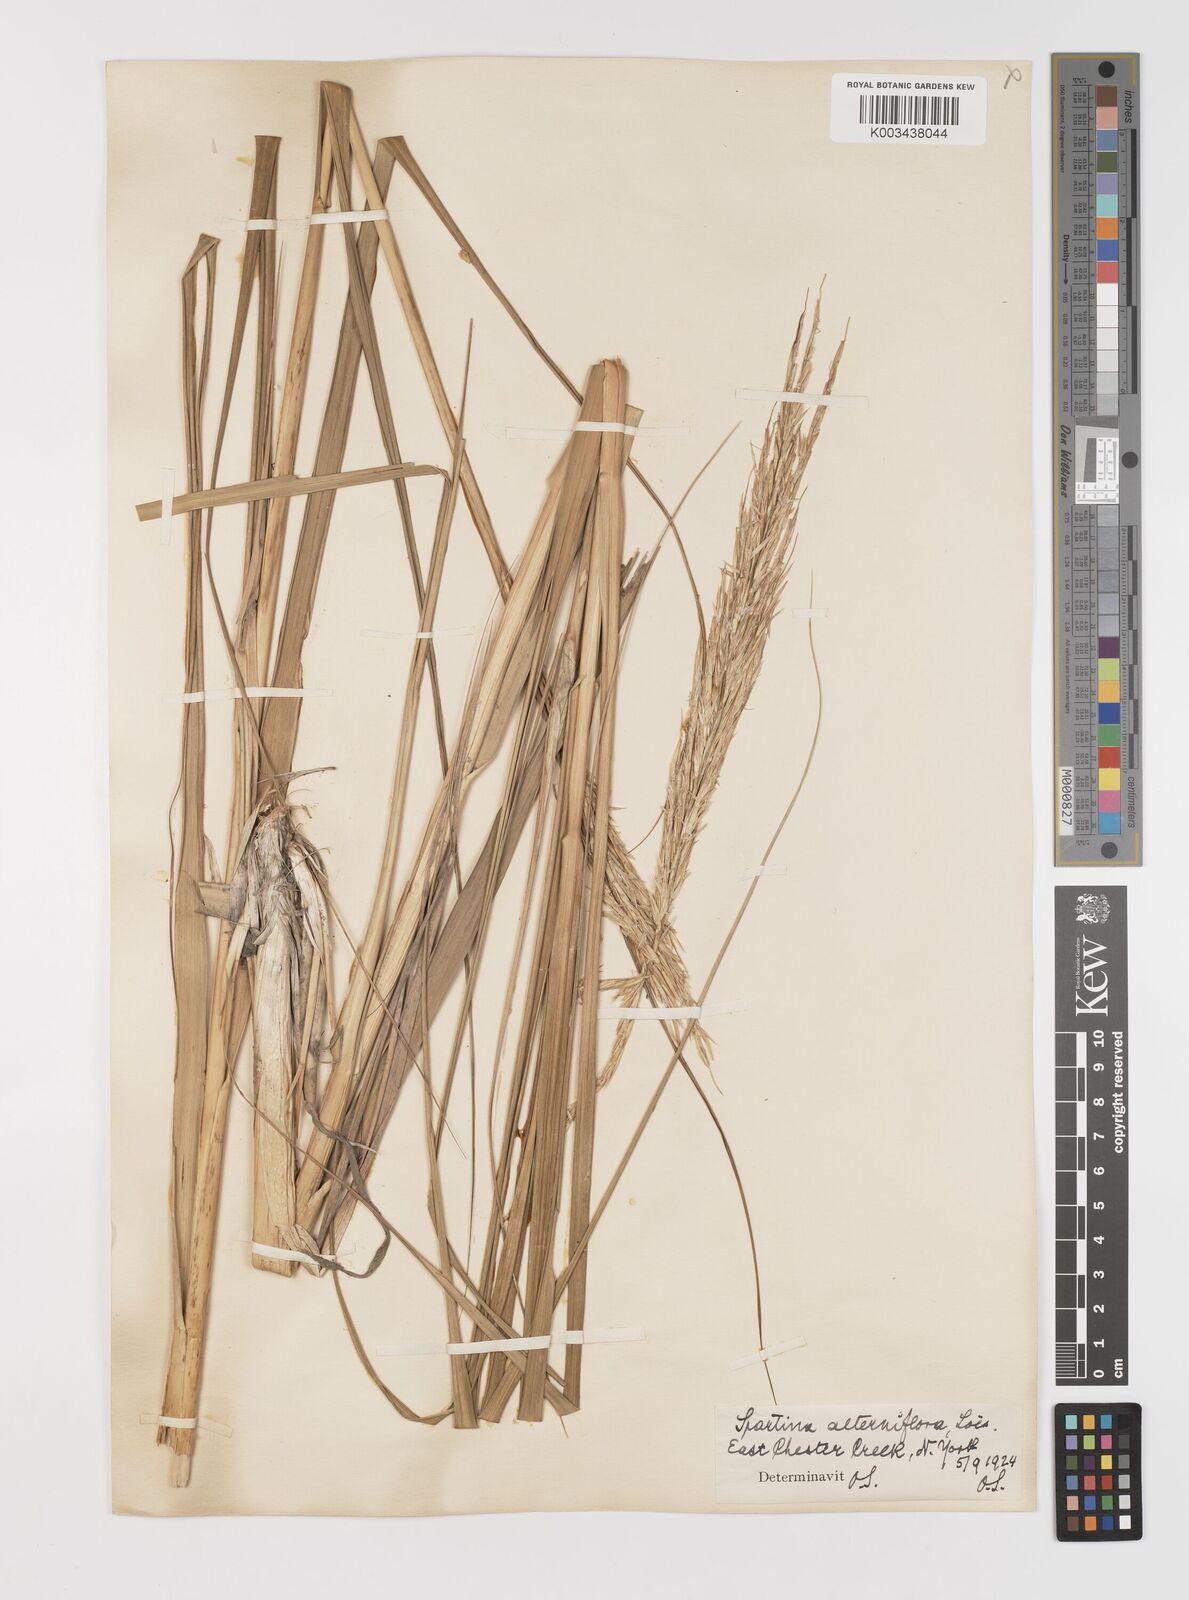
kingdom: Plantae
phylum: Tracheophyta
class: Liliopsida
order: Poales
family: Poaceae
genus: Sporobolus
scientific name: Sporobolus alterniflorus
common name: Atlantic cordgrass
